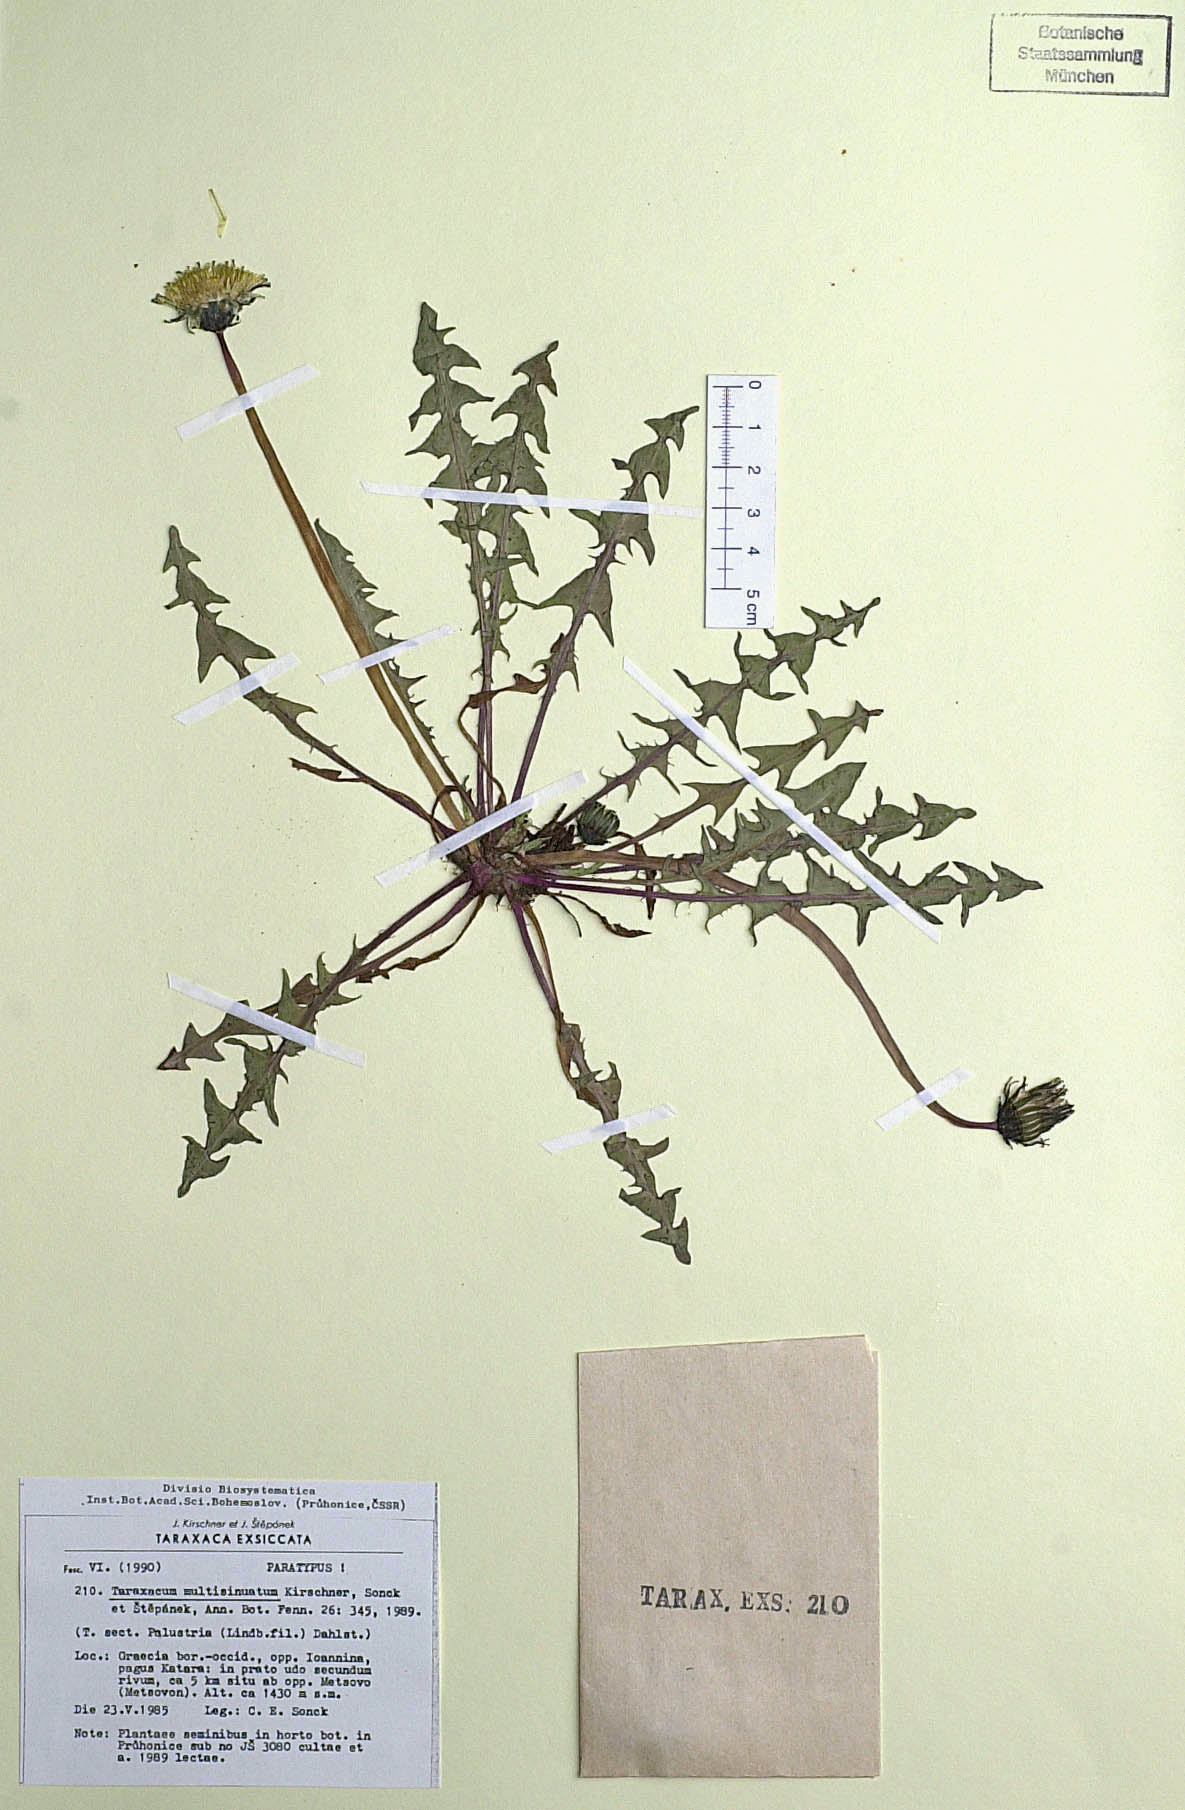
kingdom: Plantae
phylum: Tracheophyta
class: Magnoliopsida
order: Asterales
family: Asteraceae
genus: Taraxacum
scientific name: Taraxacum multisinuatum
